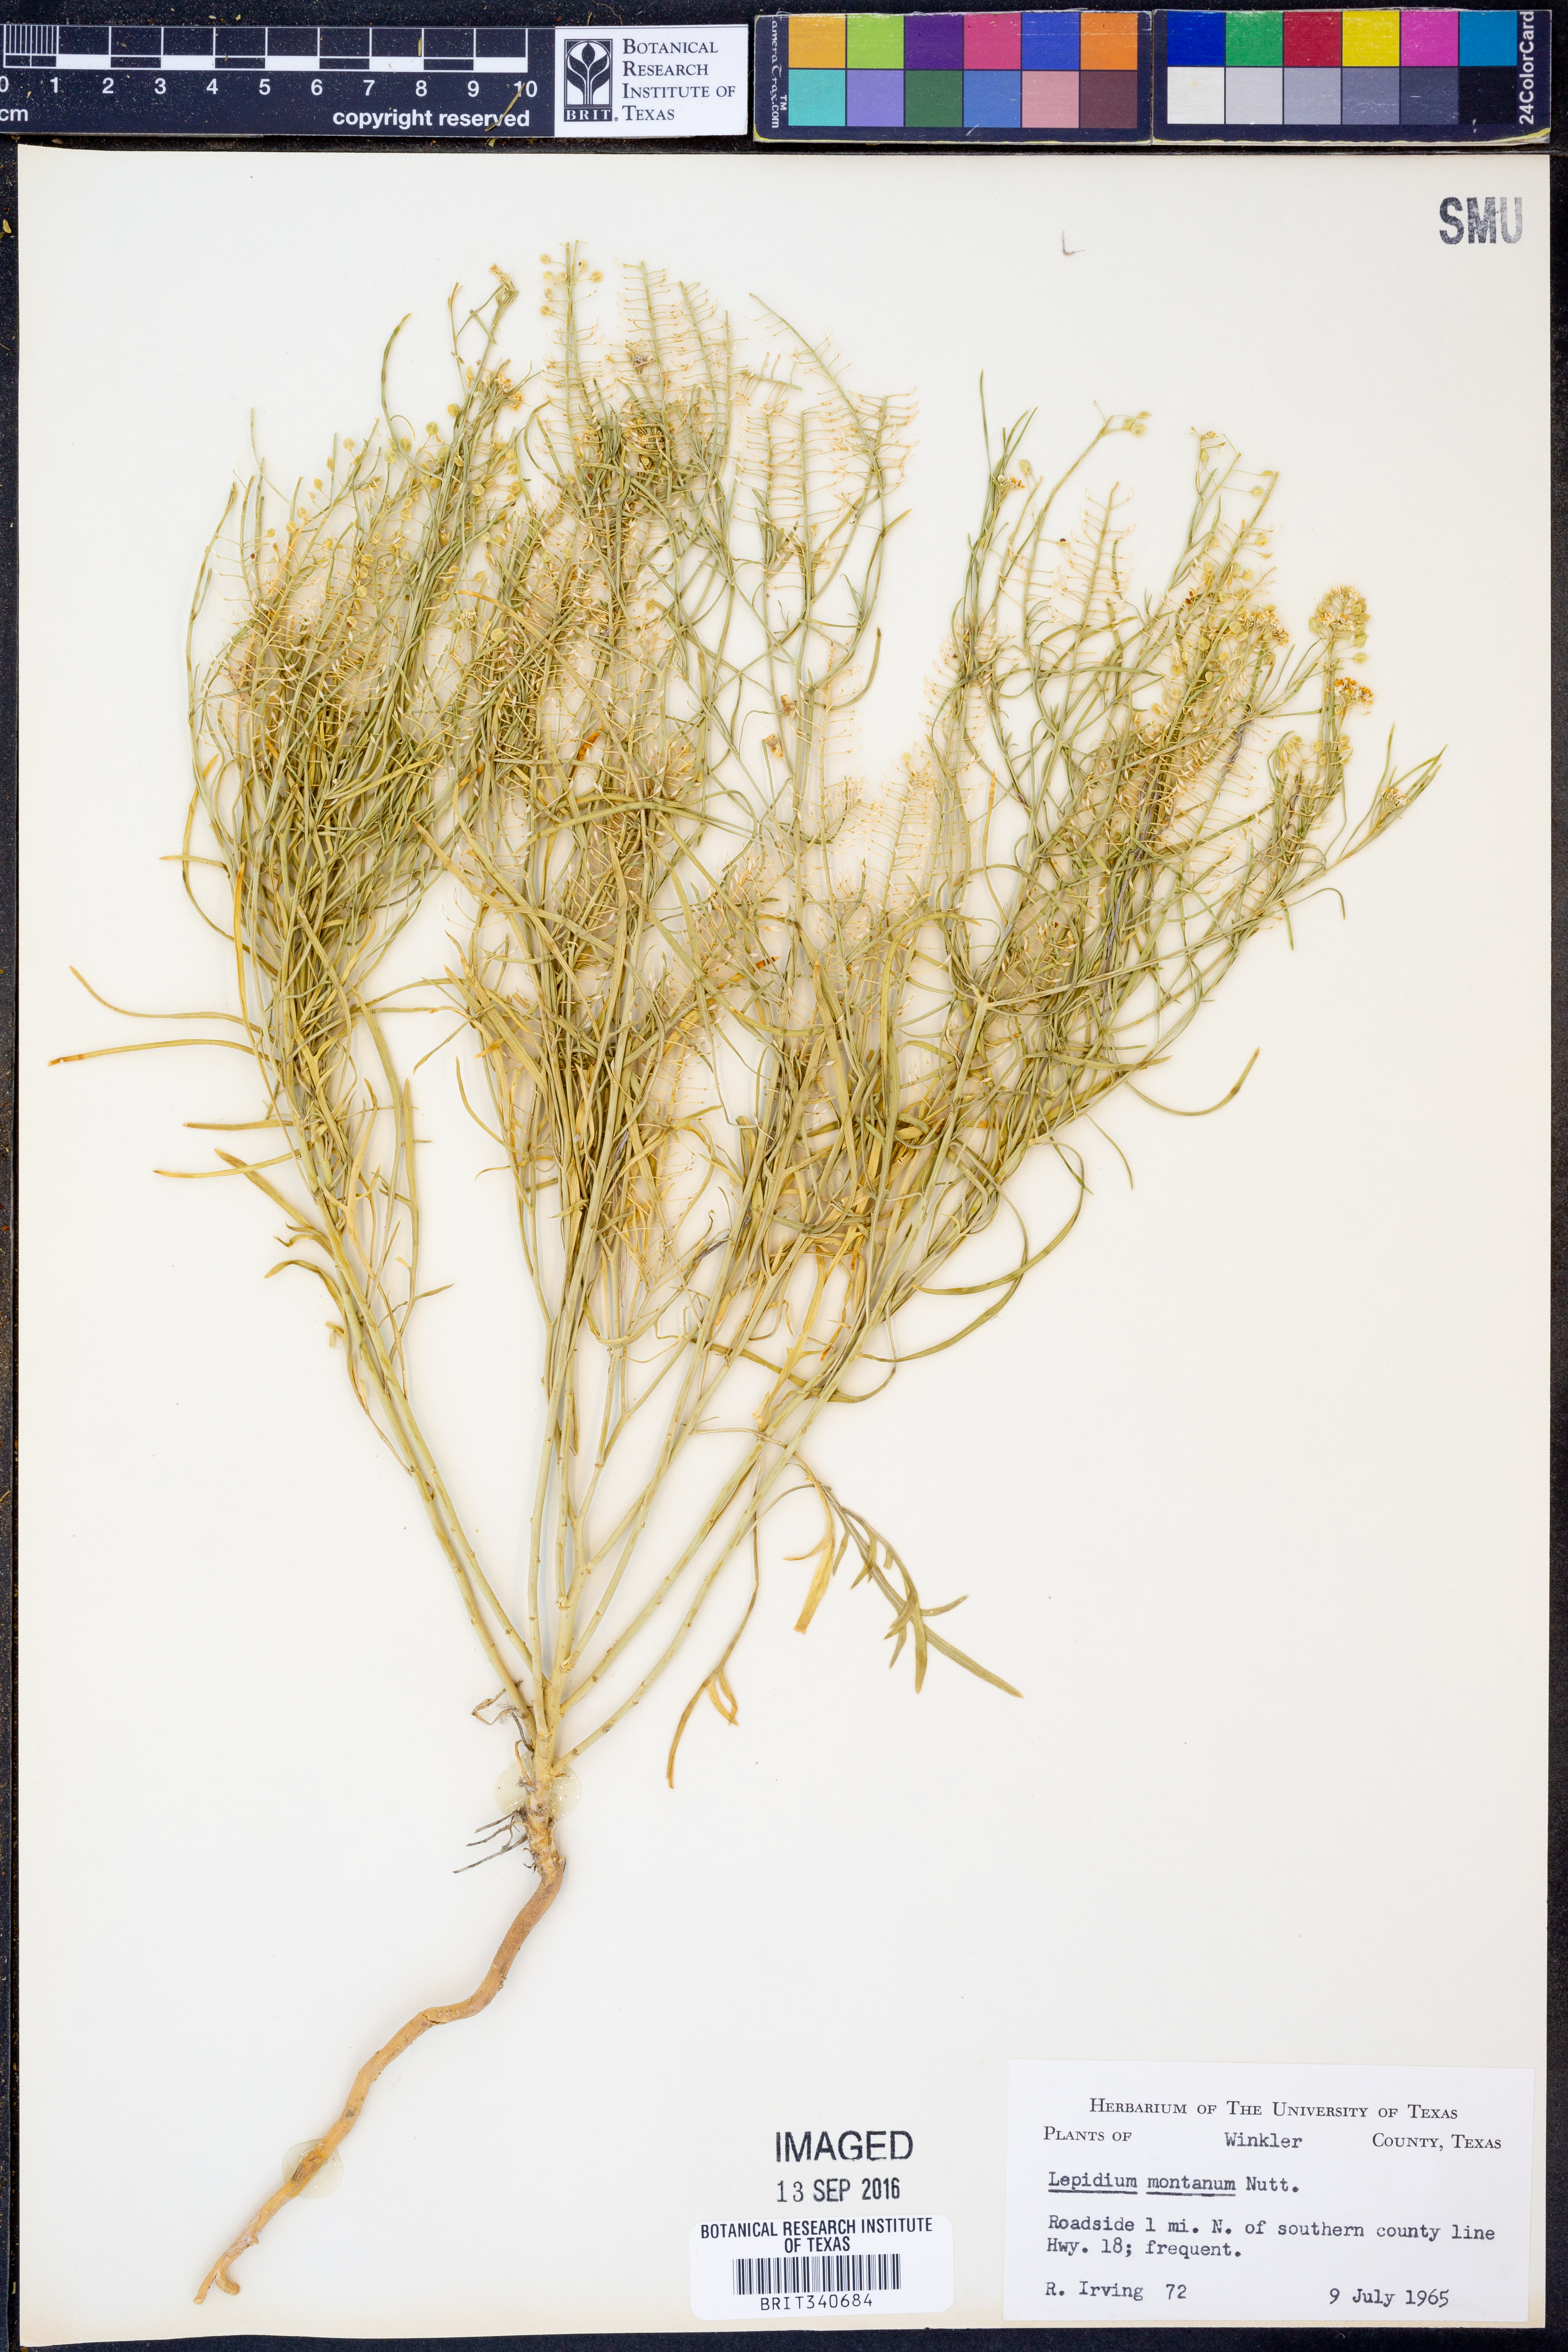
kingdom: Plantae
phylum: Tracheophyta
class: Magnoliopsida
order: Brassicales
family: Brassicaceae
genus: Lepidium
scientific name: Lepidium montanum
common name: Mountain pepperplant
